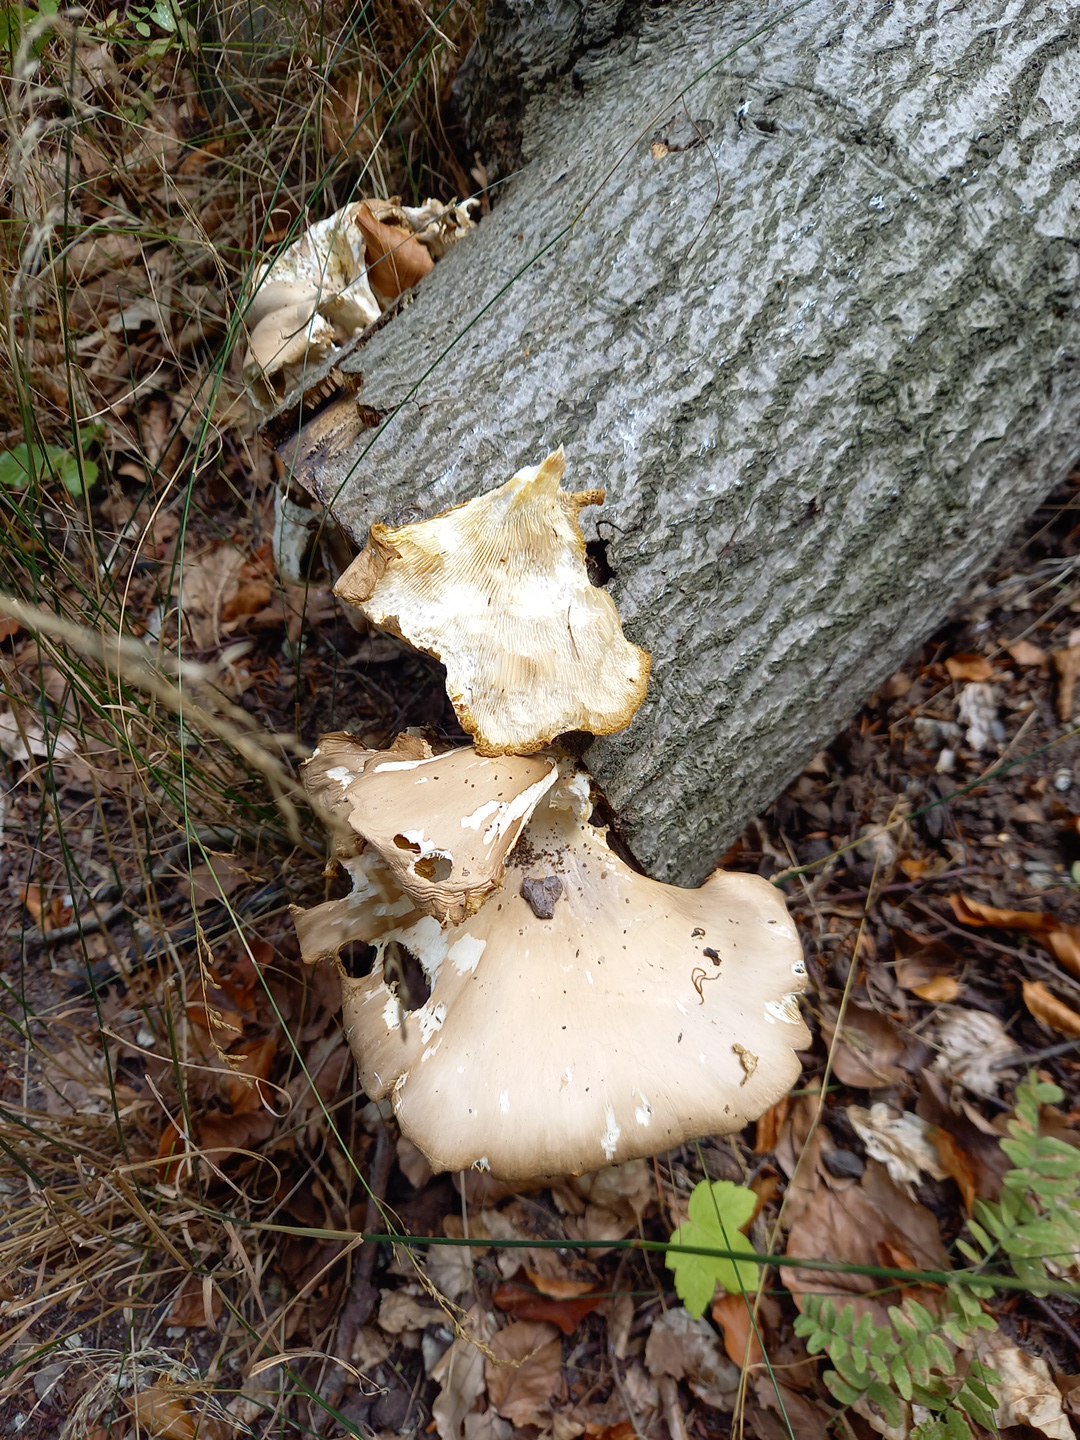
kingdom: Fungi
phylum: Basidiomycota
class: Agaricomycetes
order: Agaricales
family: Pleurotaceae
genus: Pleurotus
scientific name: Pleurotus pulmonarius
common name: sommer-østershat
